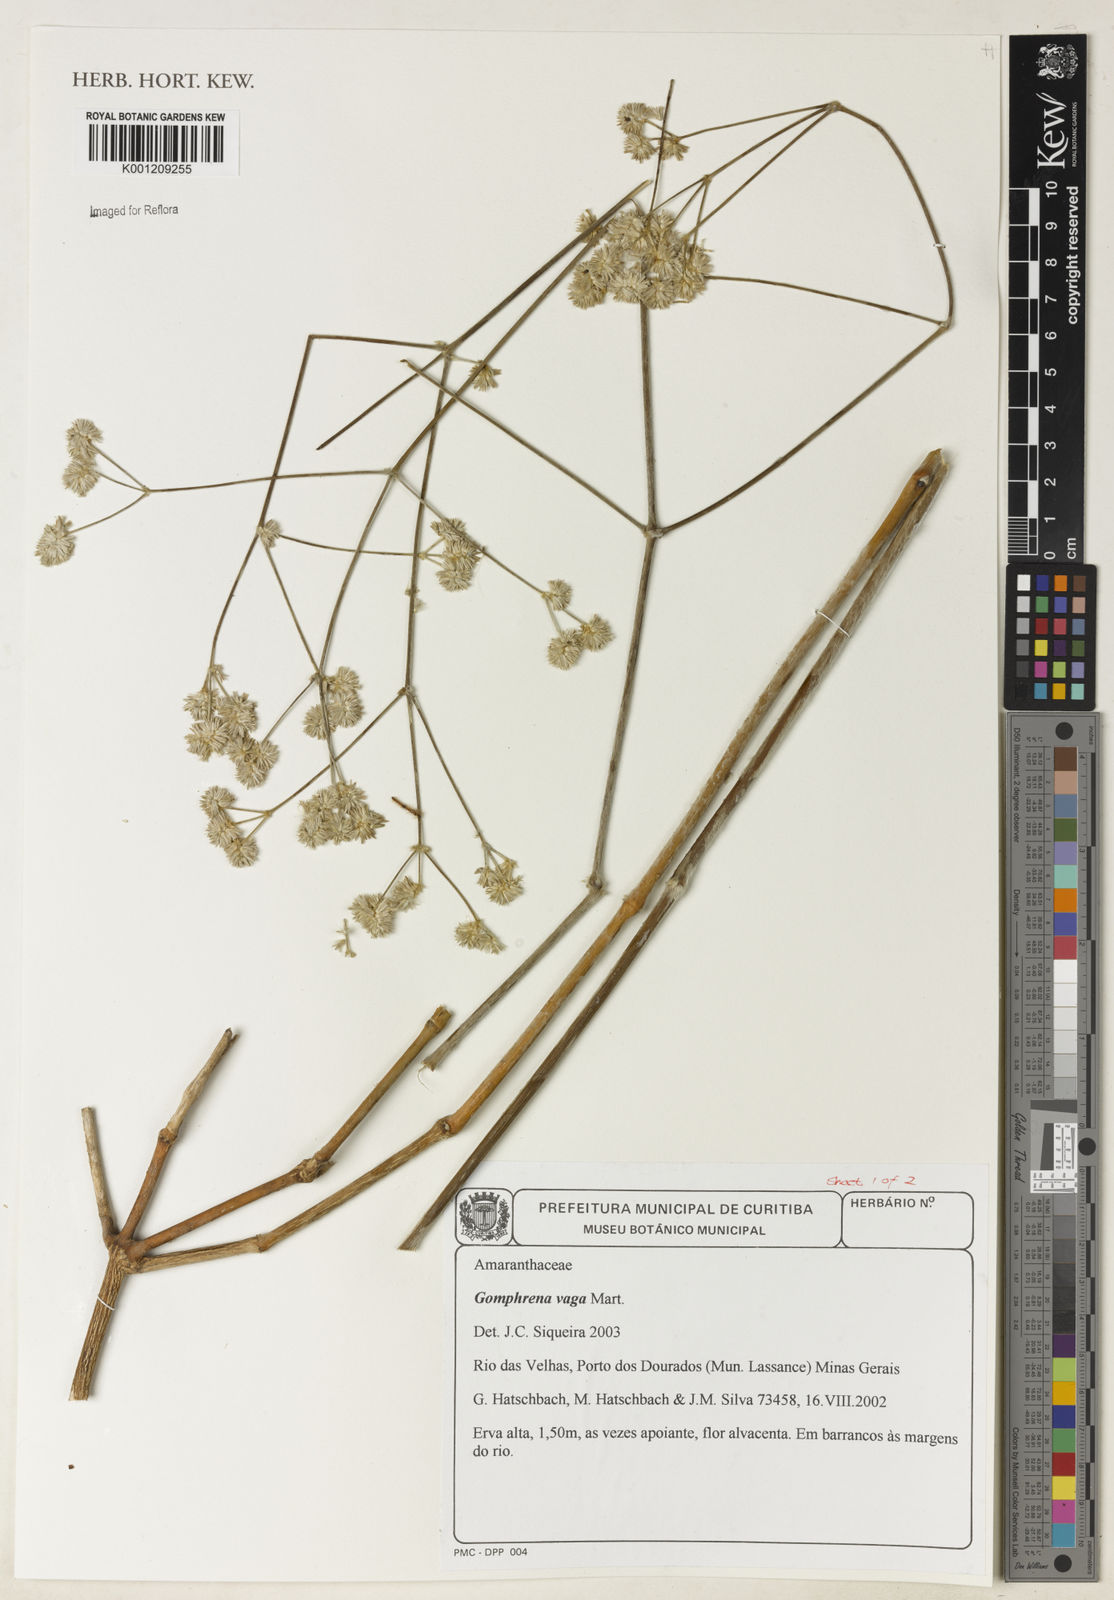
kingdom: Plantae
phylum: Tracheophyta
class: Magnoliopsida
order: Caryophyllales
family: Amaranthaceae
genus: Gomphrena
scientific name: Gomphrena vaga
